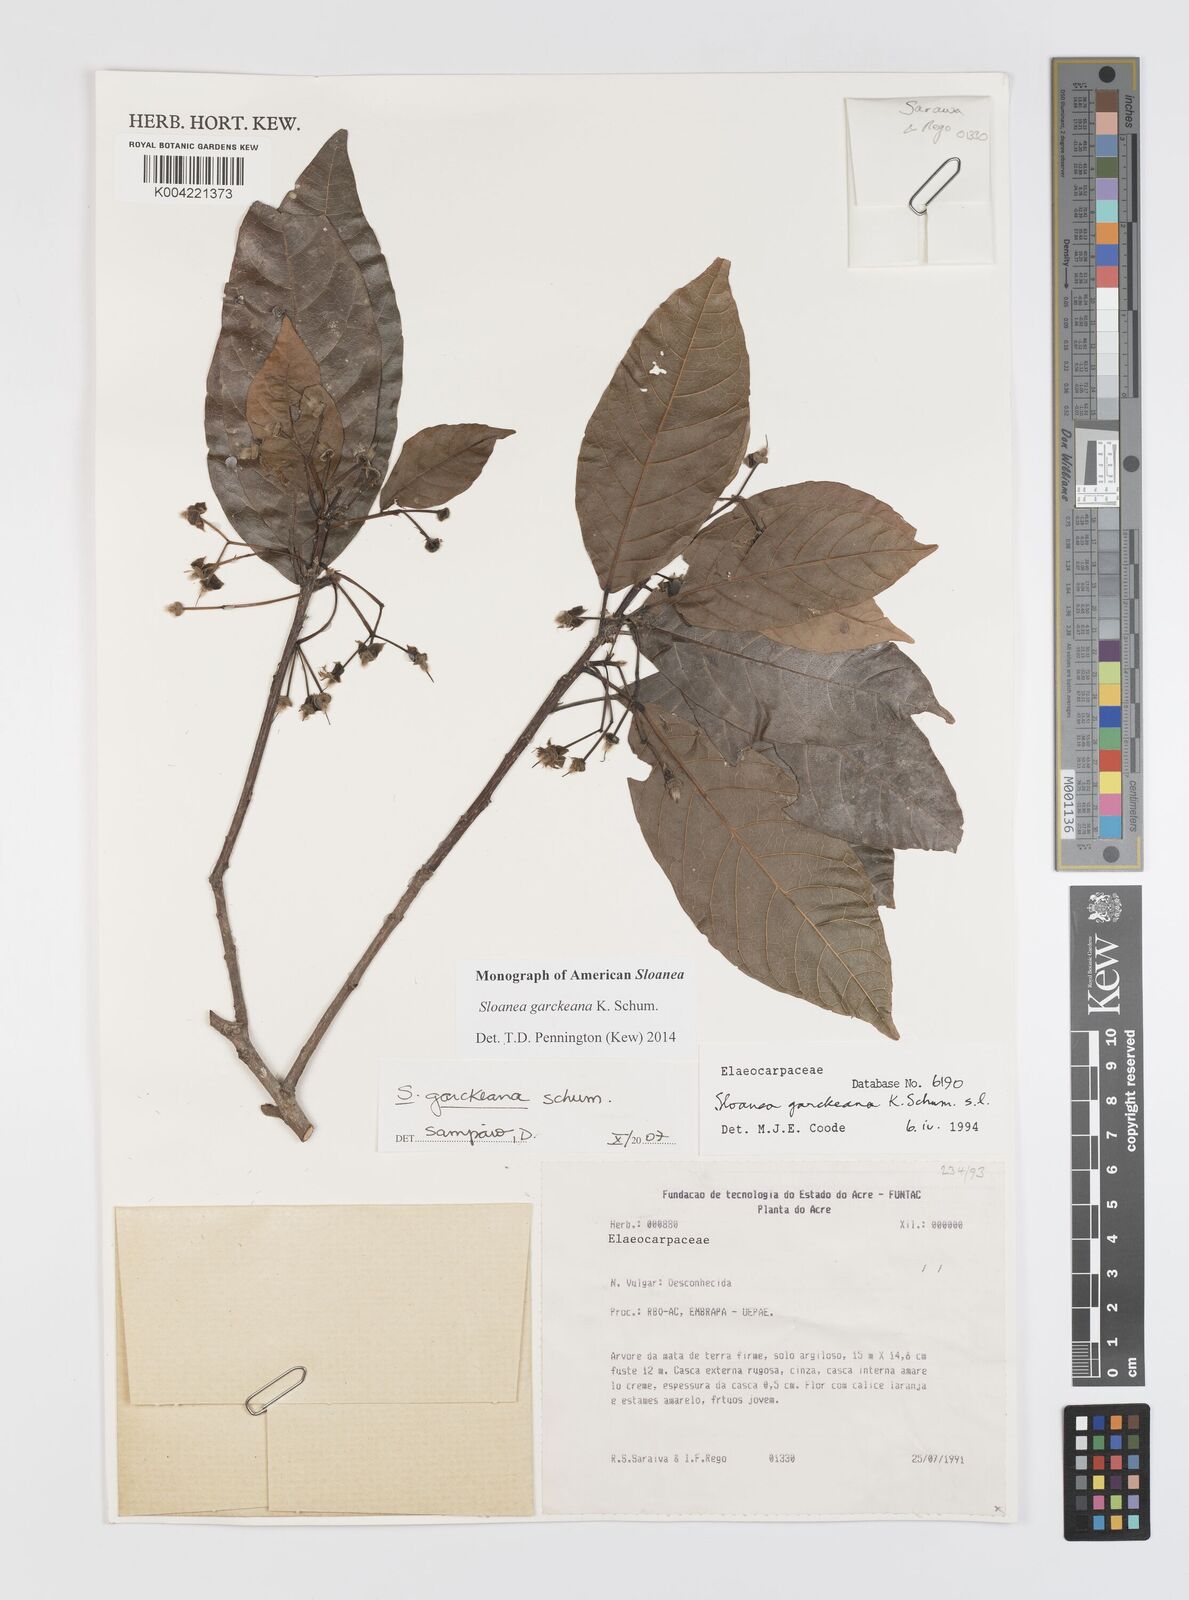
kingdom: Plantae
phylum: Tracheophyta
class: Magnoliopsida
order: Oxalidales
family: Elaeocarpaceae
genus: Sloanea
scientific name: Sloanea garckeana
